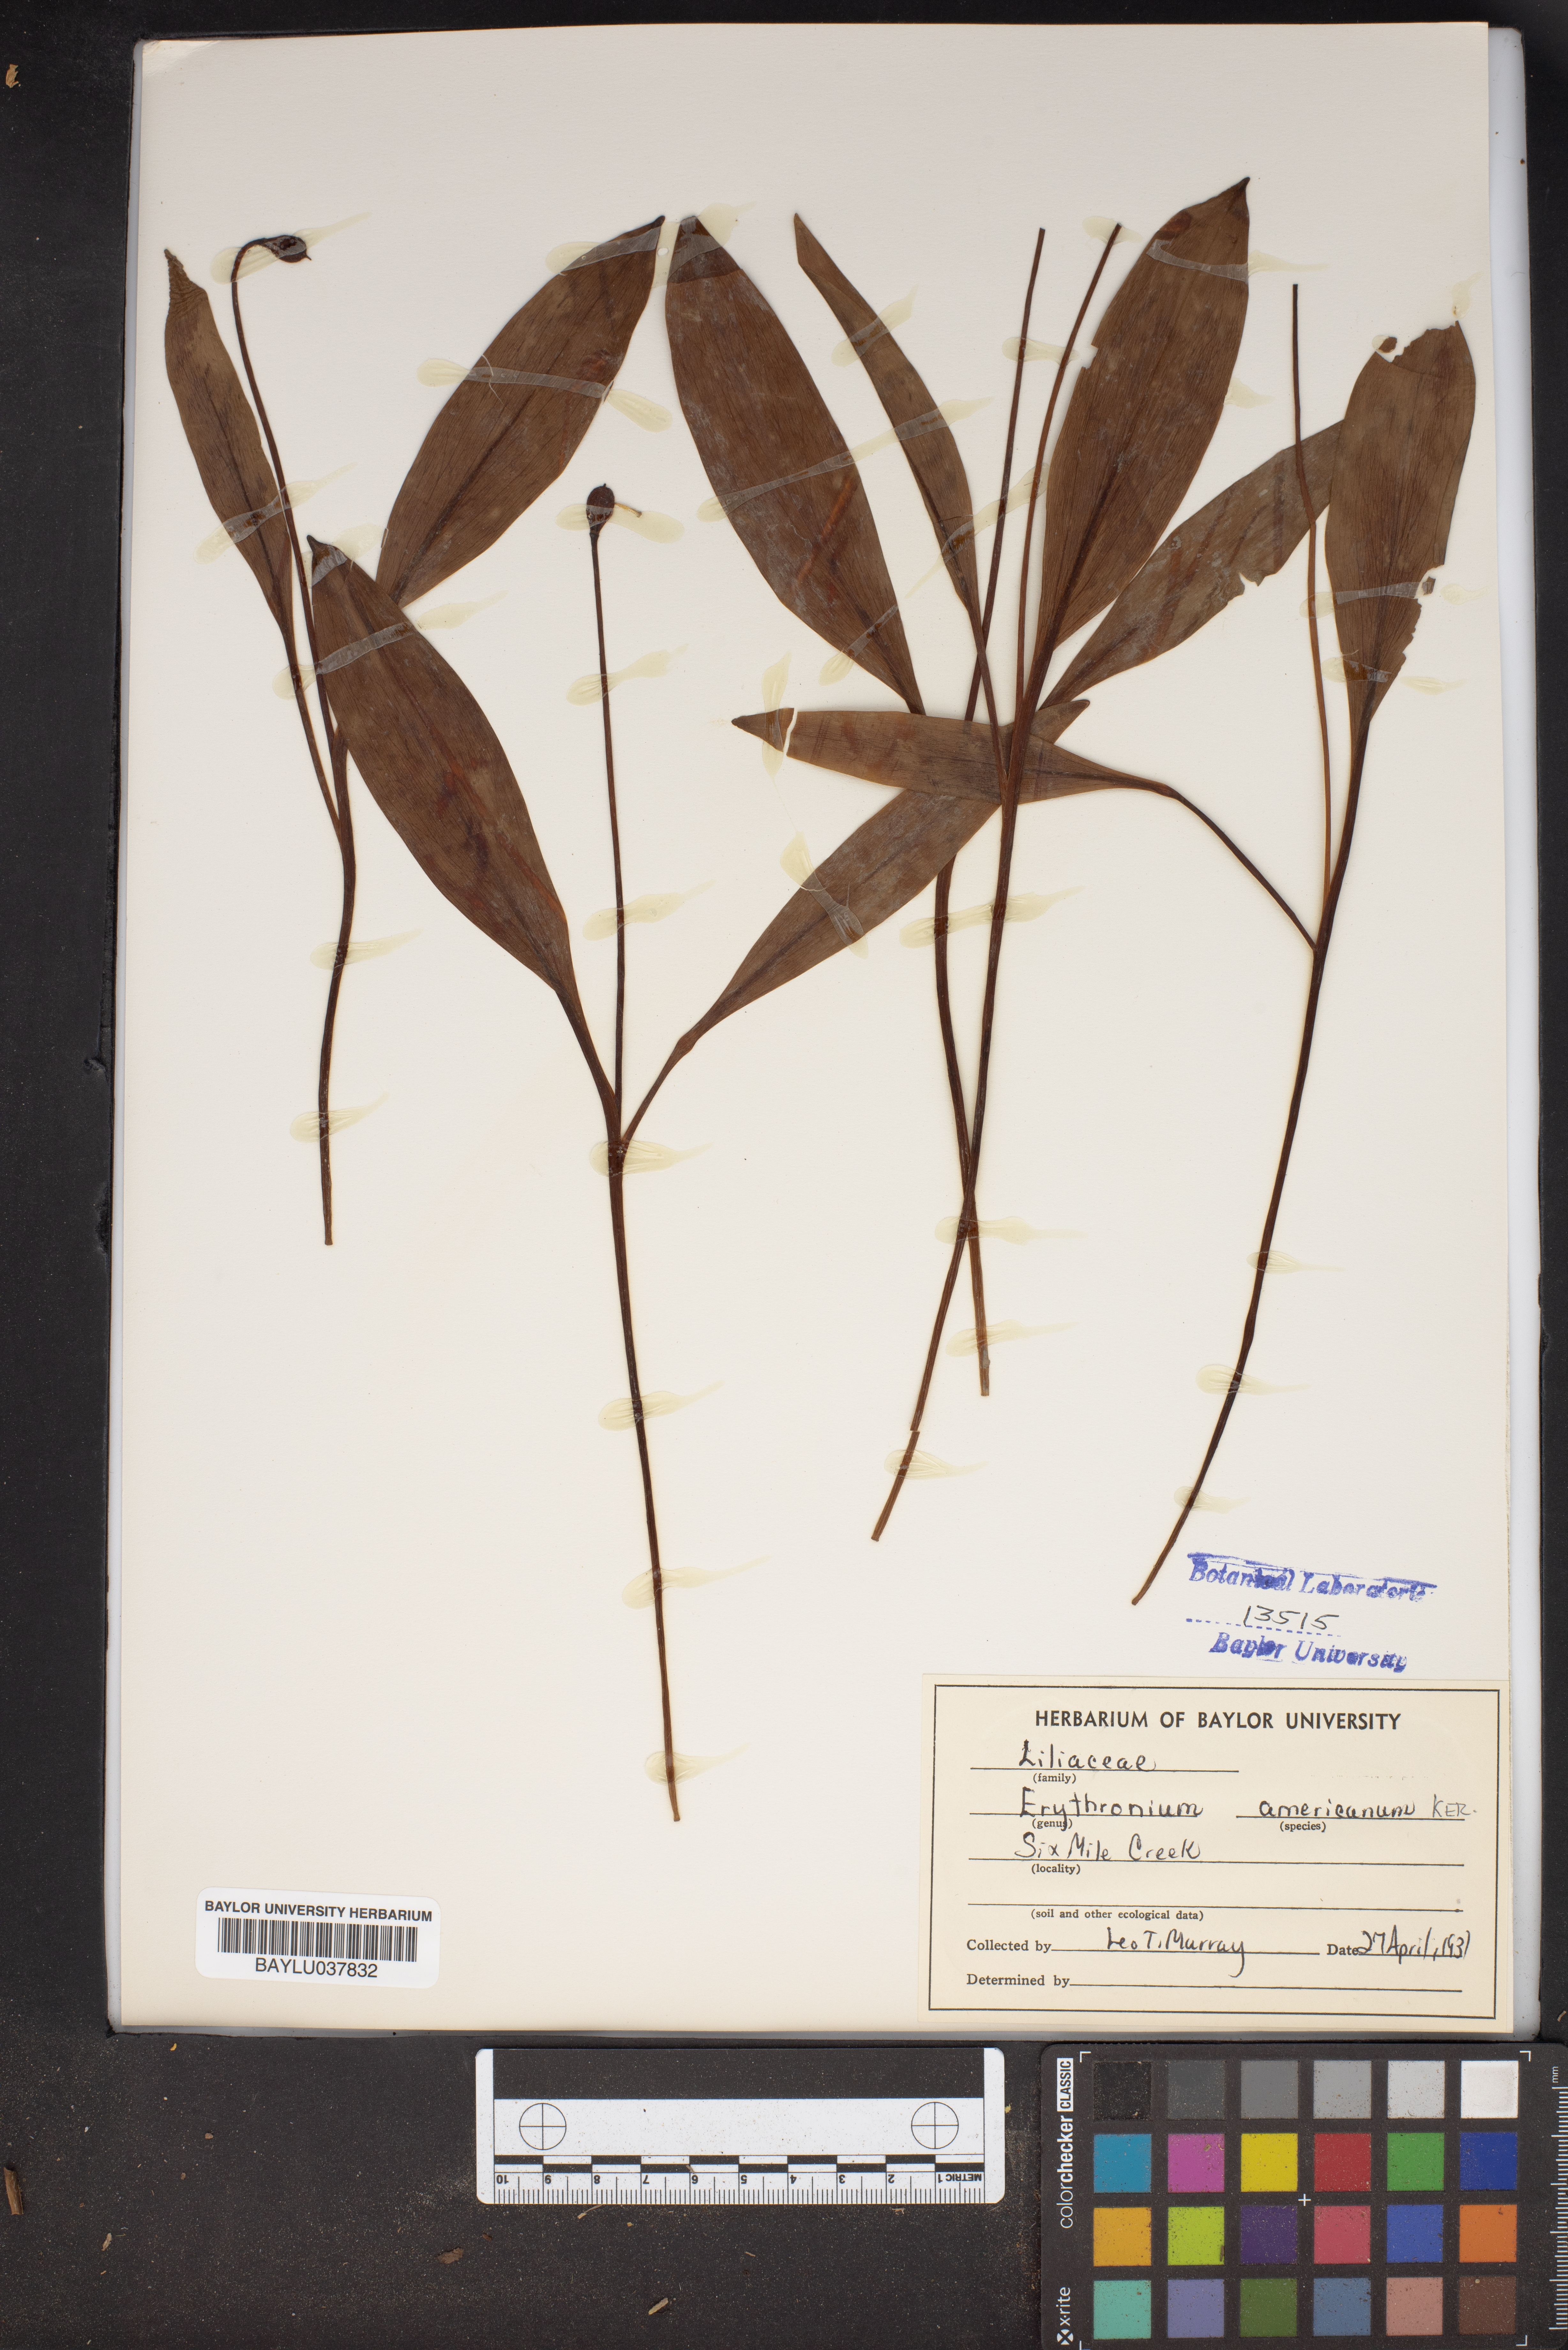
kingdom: Plantae
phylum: Tracheophyta
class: Liliopsida
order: Liliales
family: Liliaceae
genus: Erythronium
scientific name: Erythronium americanum
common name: Yellow adder's-tongue
